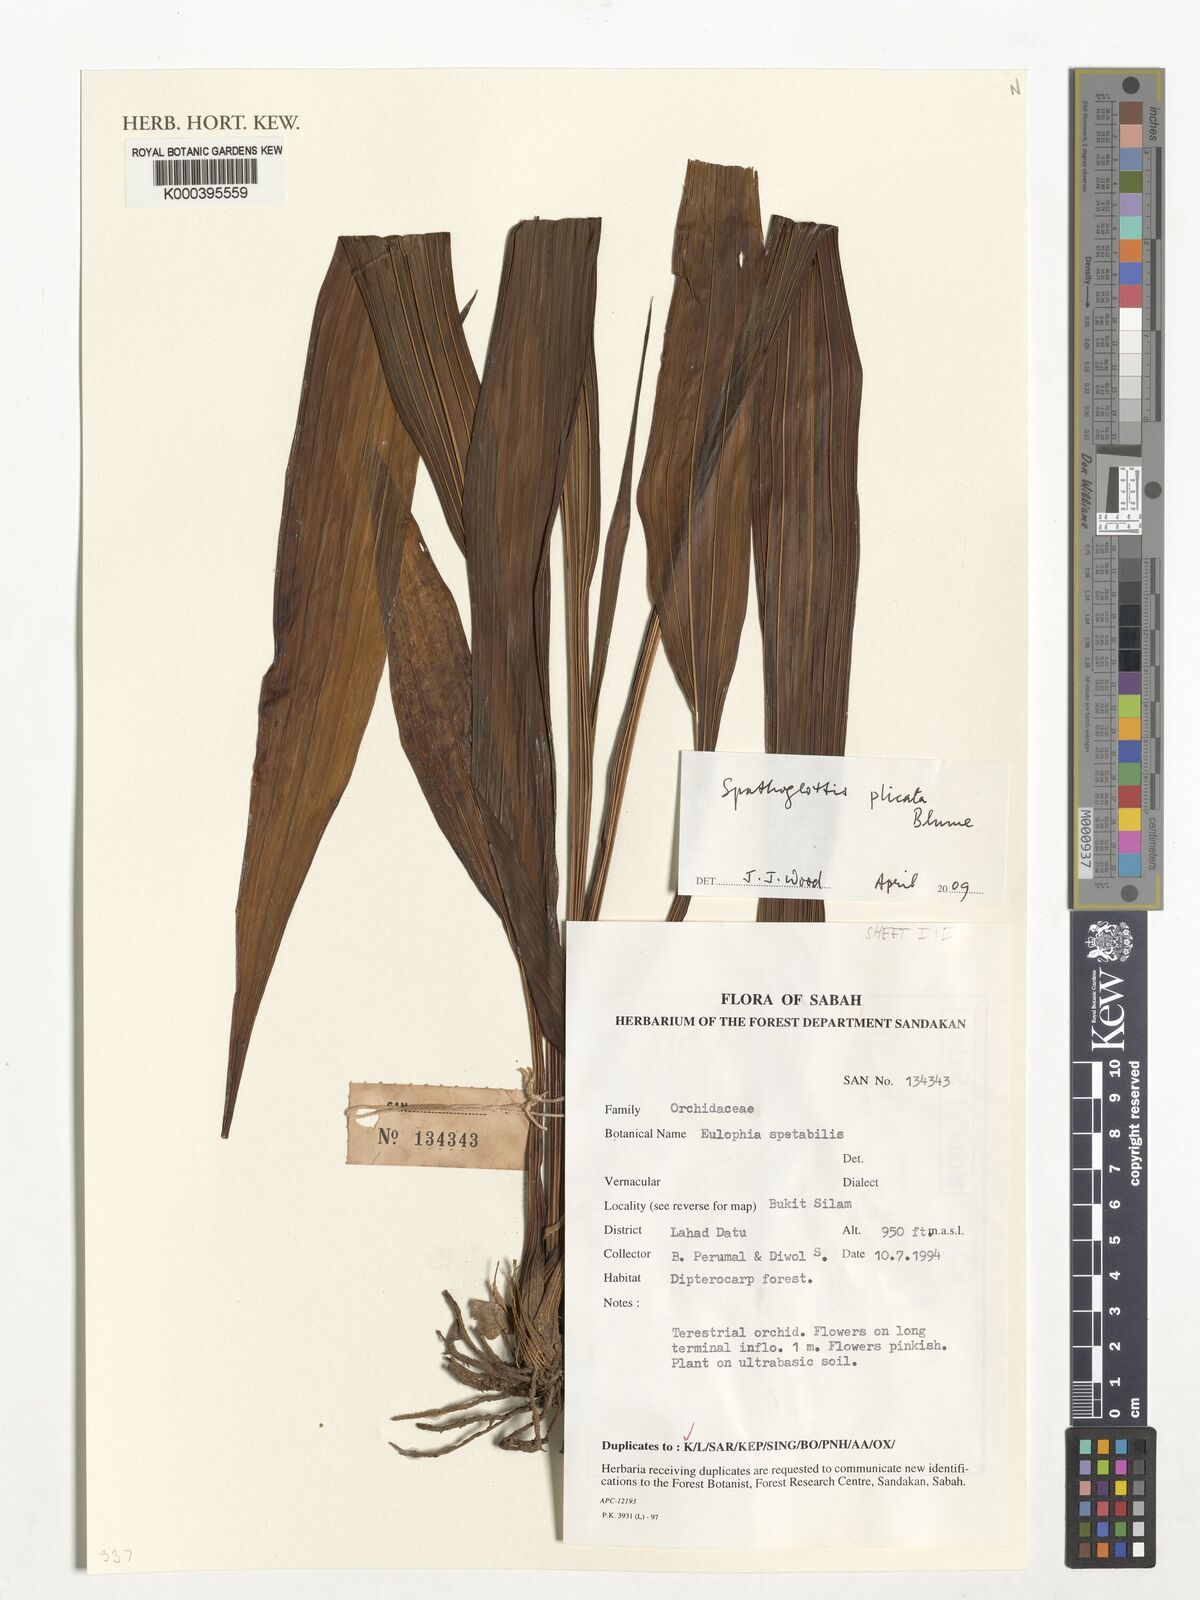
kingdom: Plantae
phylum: Tracheophyta
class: Liliopsida
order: Asparagales
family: Orchidaceae
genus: Spathoglottis
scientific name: Spathoglottis plicata
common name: Philippine ground orchid
